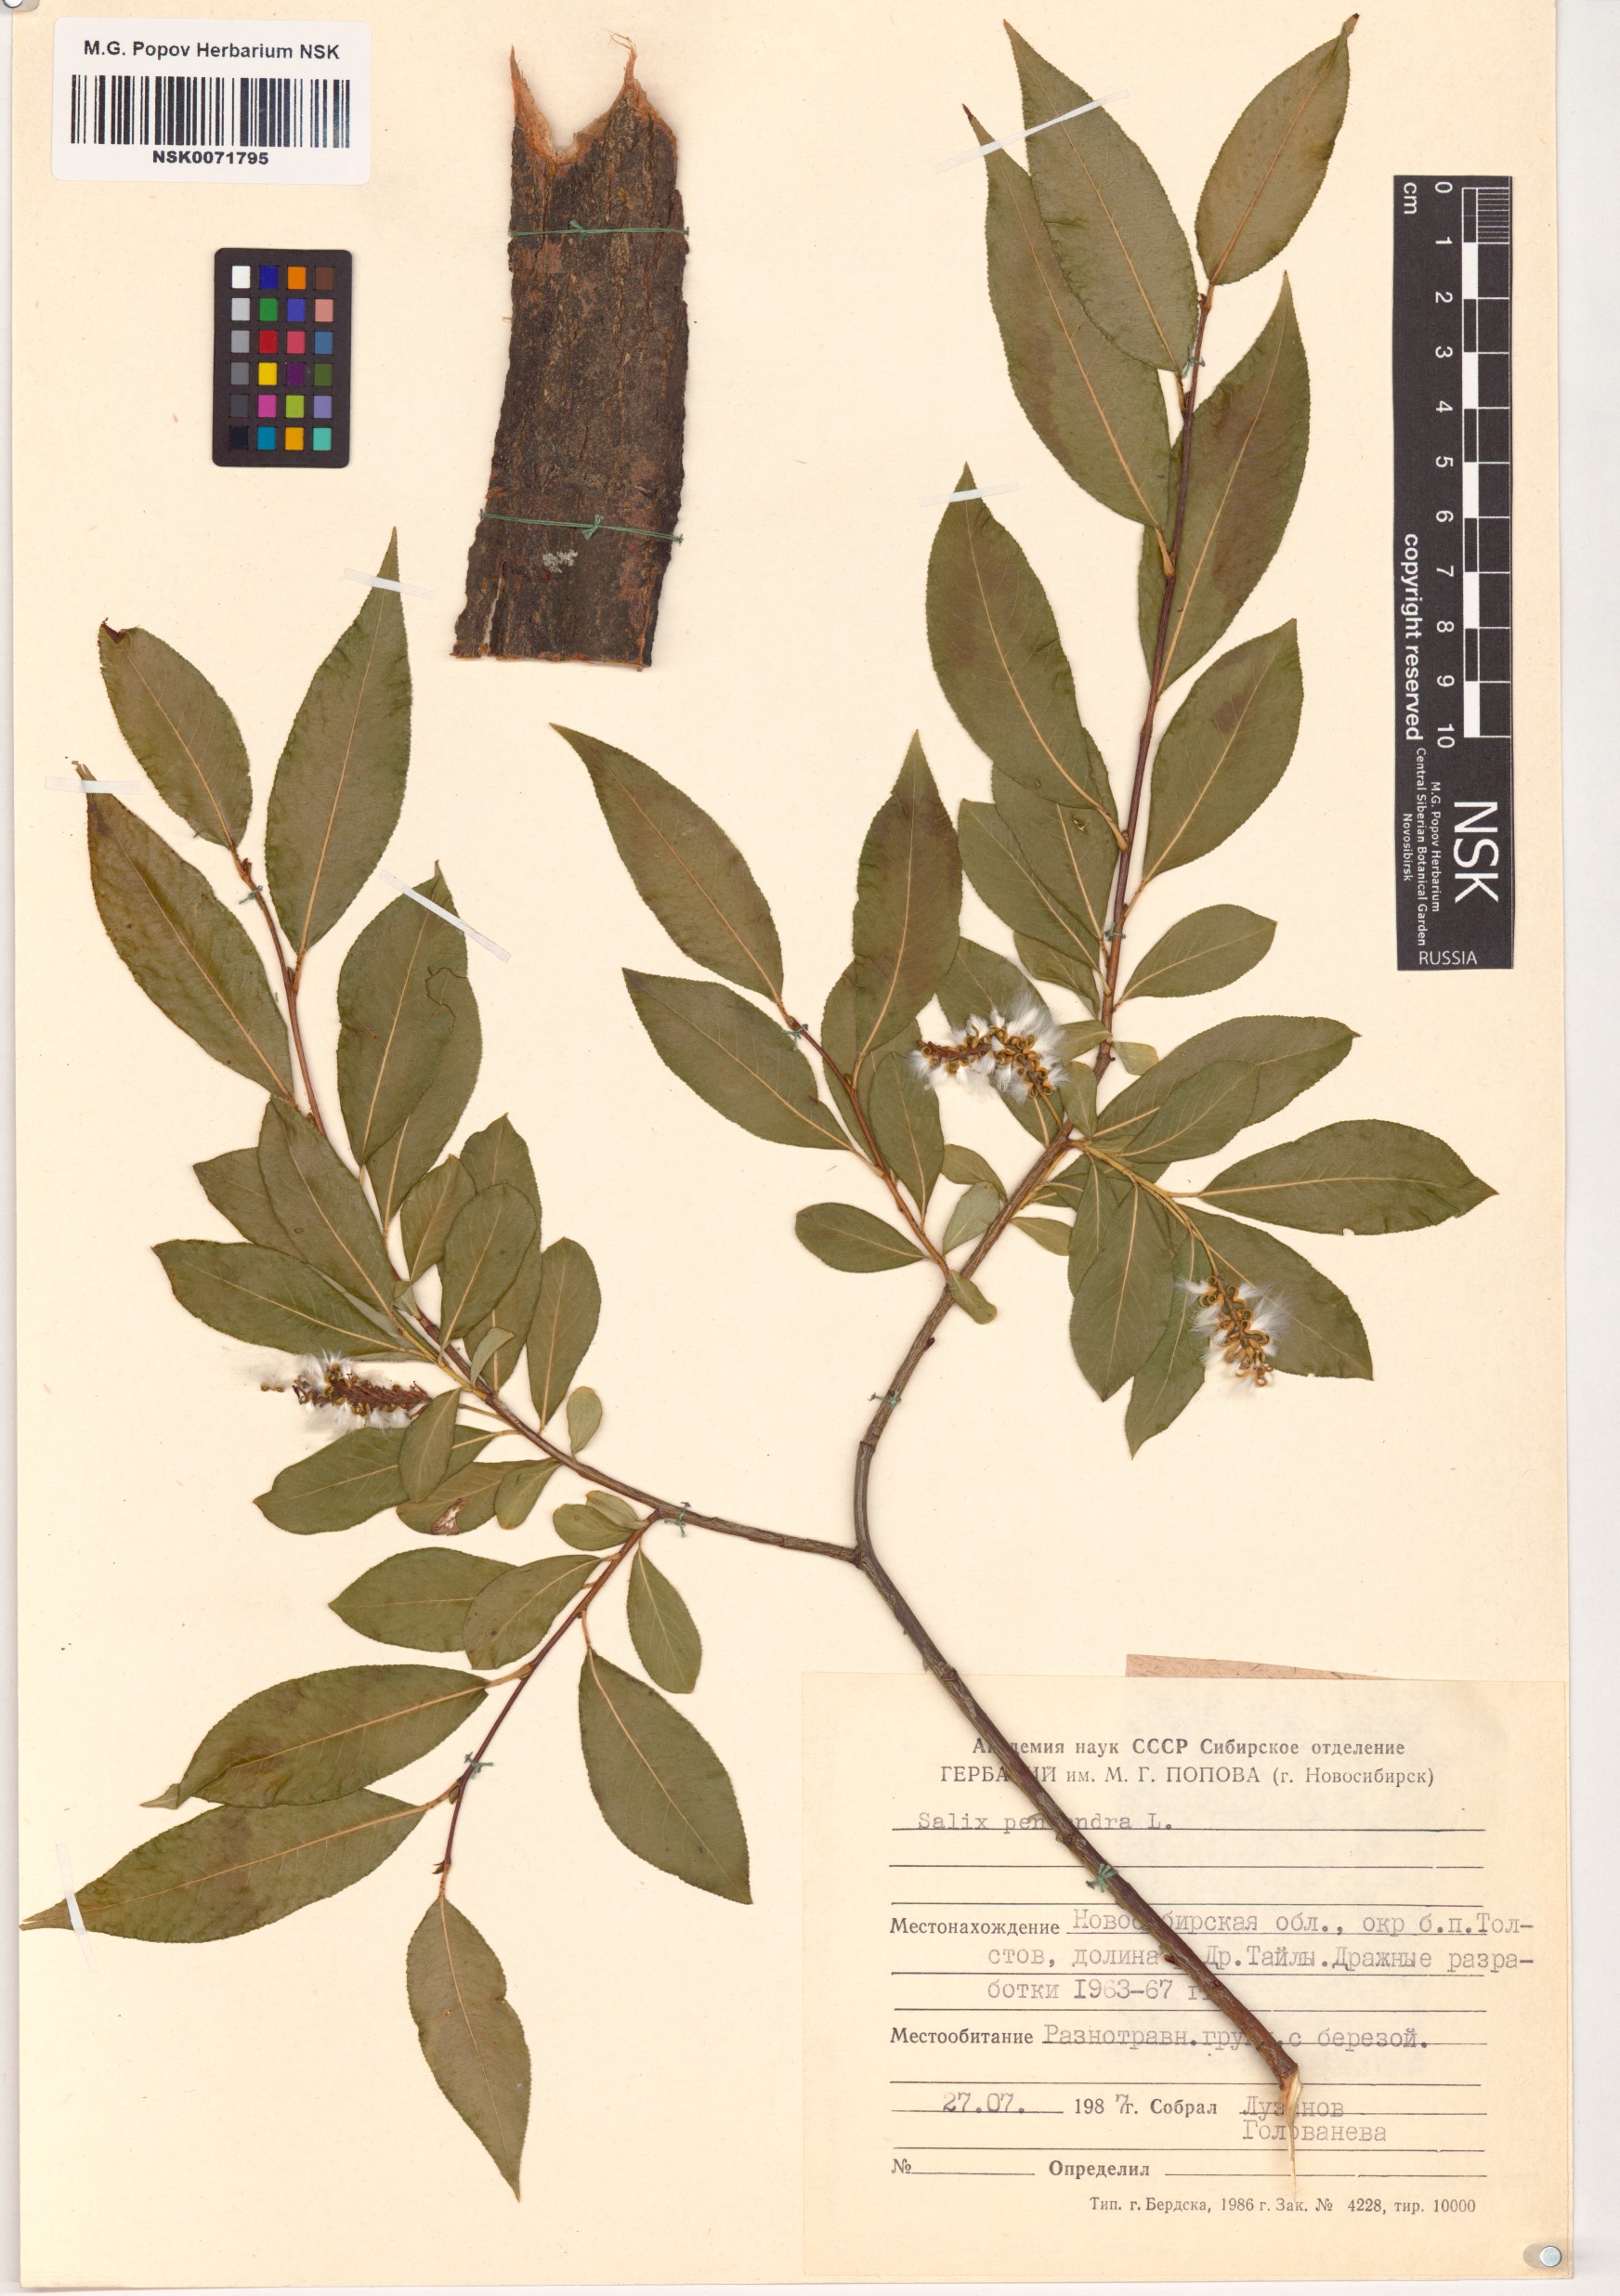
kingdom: Plantae
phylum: Tracheophyta
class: Magnoliopsida
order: Malpighiales
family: Salicaceae
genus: Salix
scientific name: Salix pentandra
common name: Bay willow
